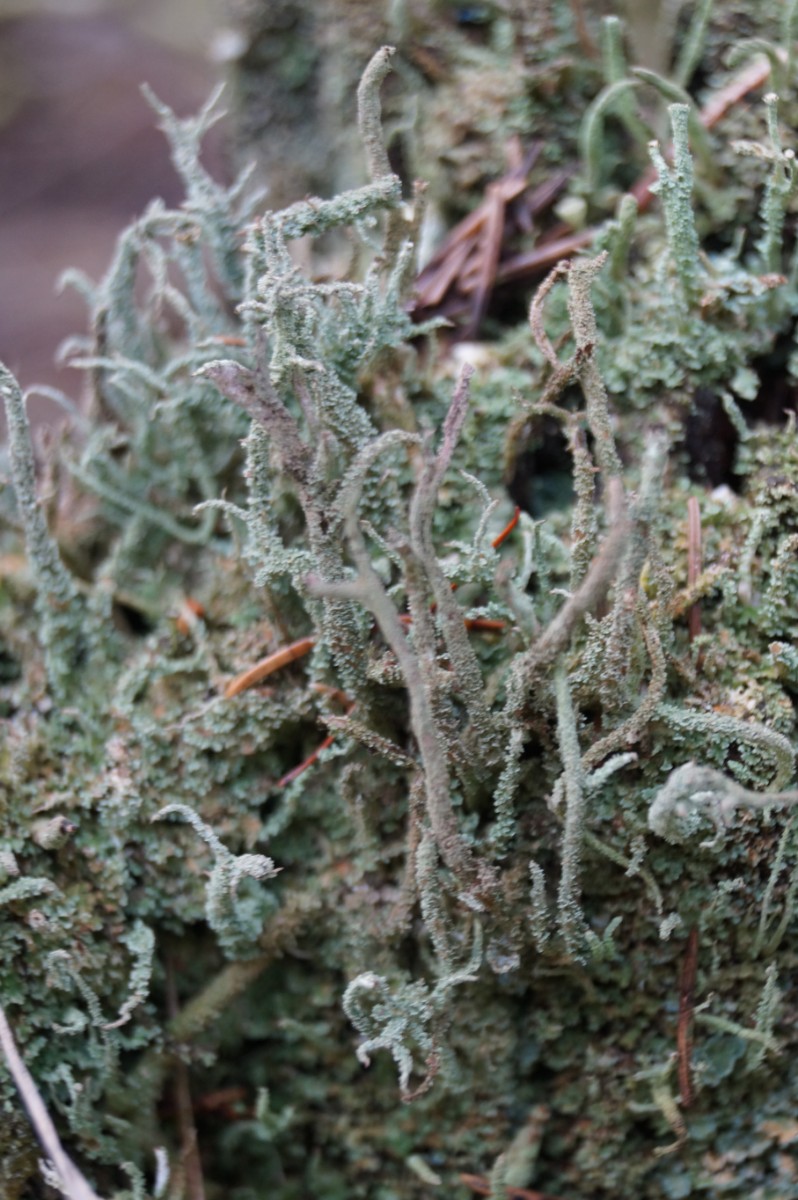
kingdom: Fungi
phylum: Ascomycota
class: Lecanoromycetes
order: Lecanorales
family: Cladoniaceae
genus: Cladonia
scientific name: Cladonia
